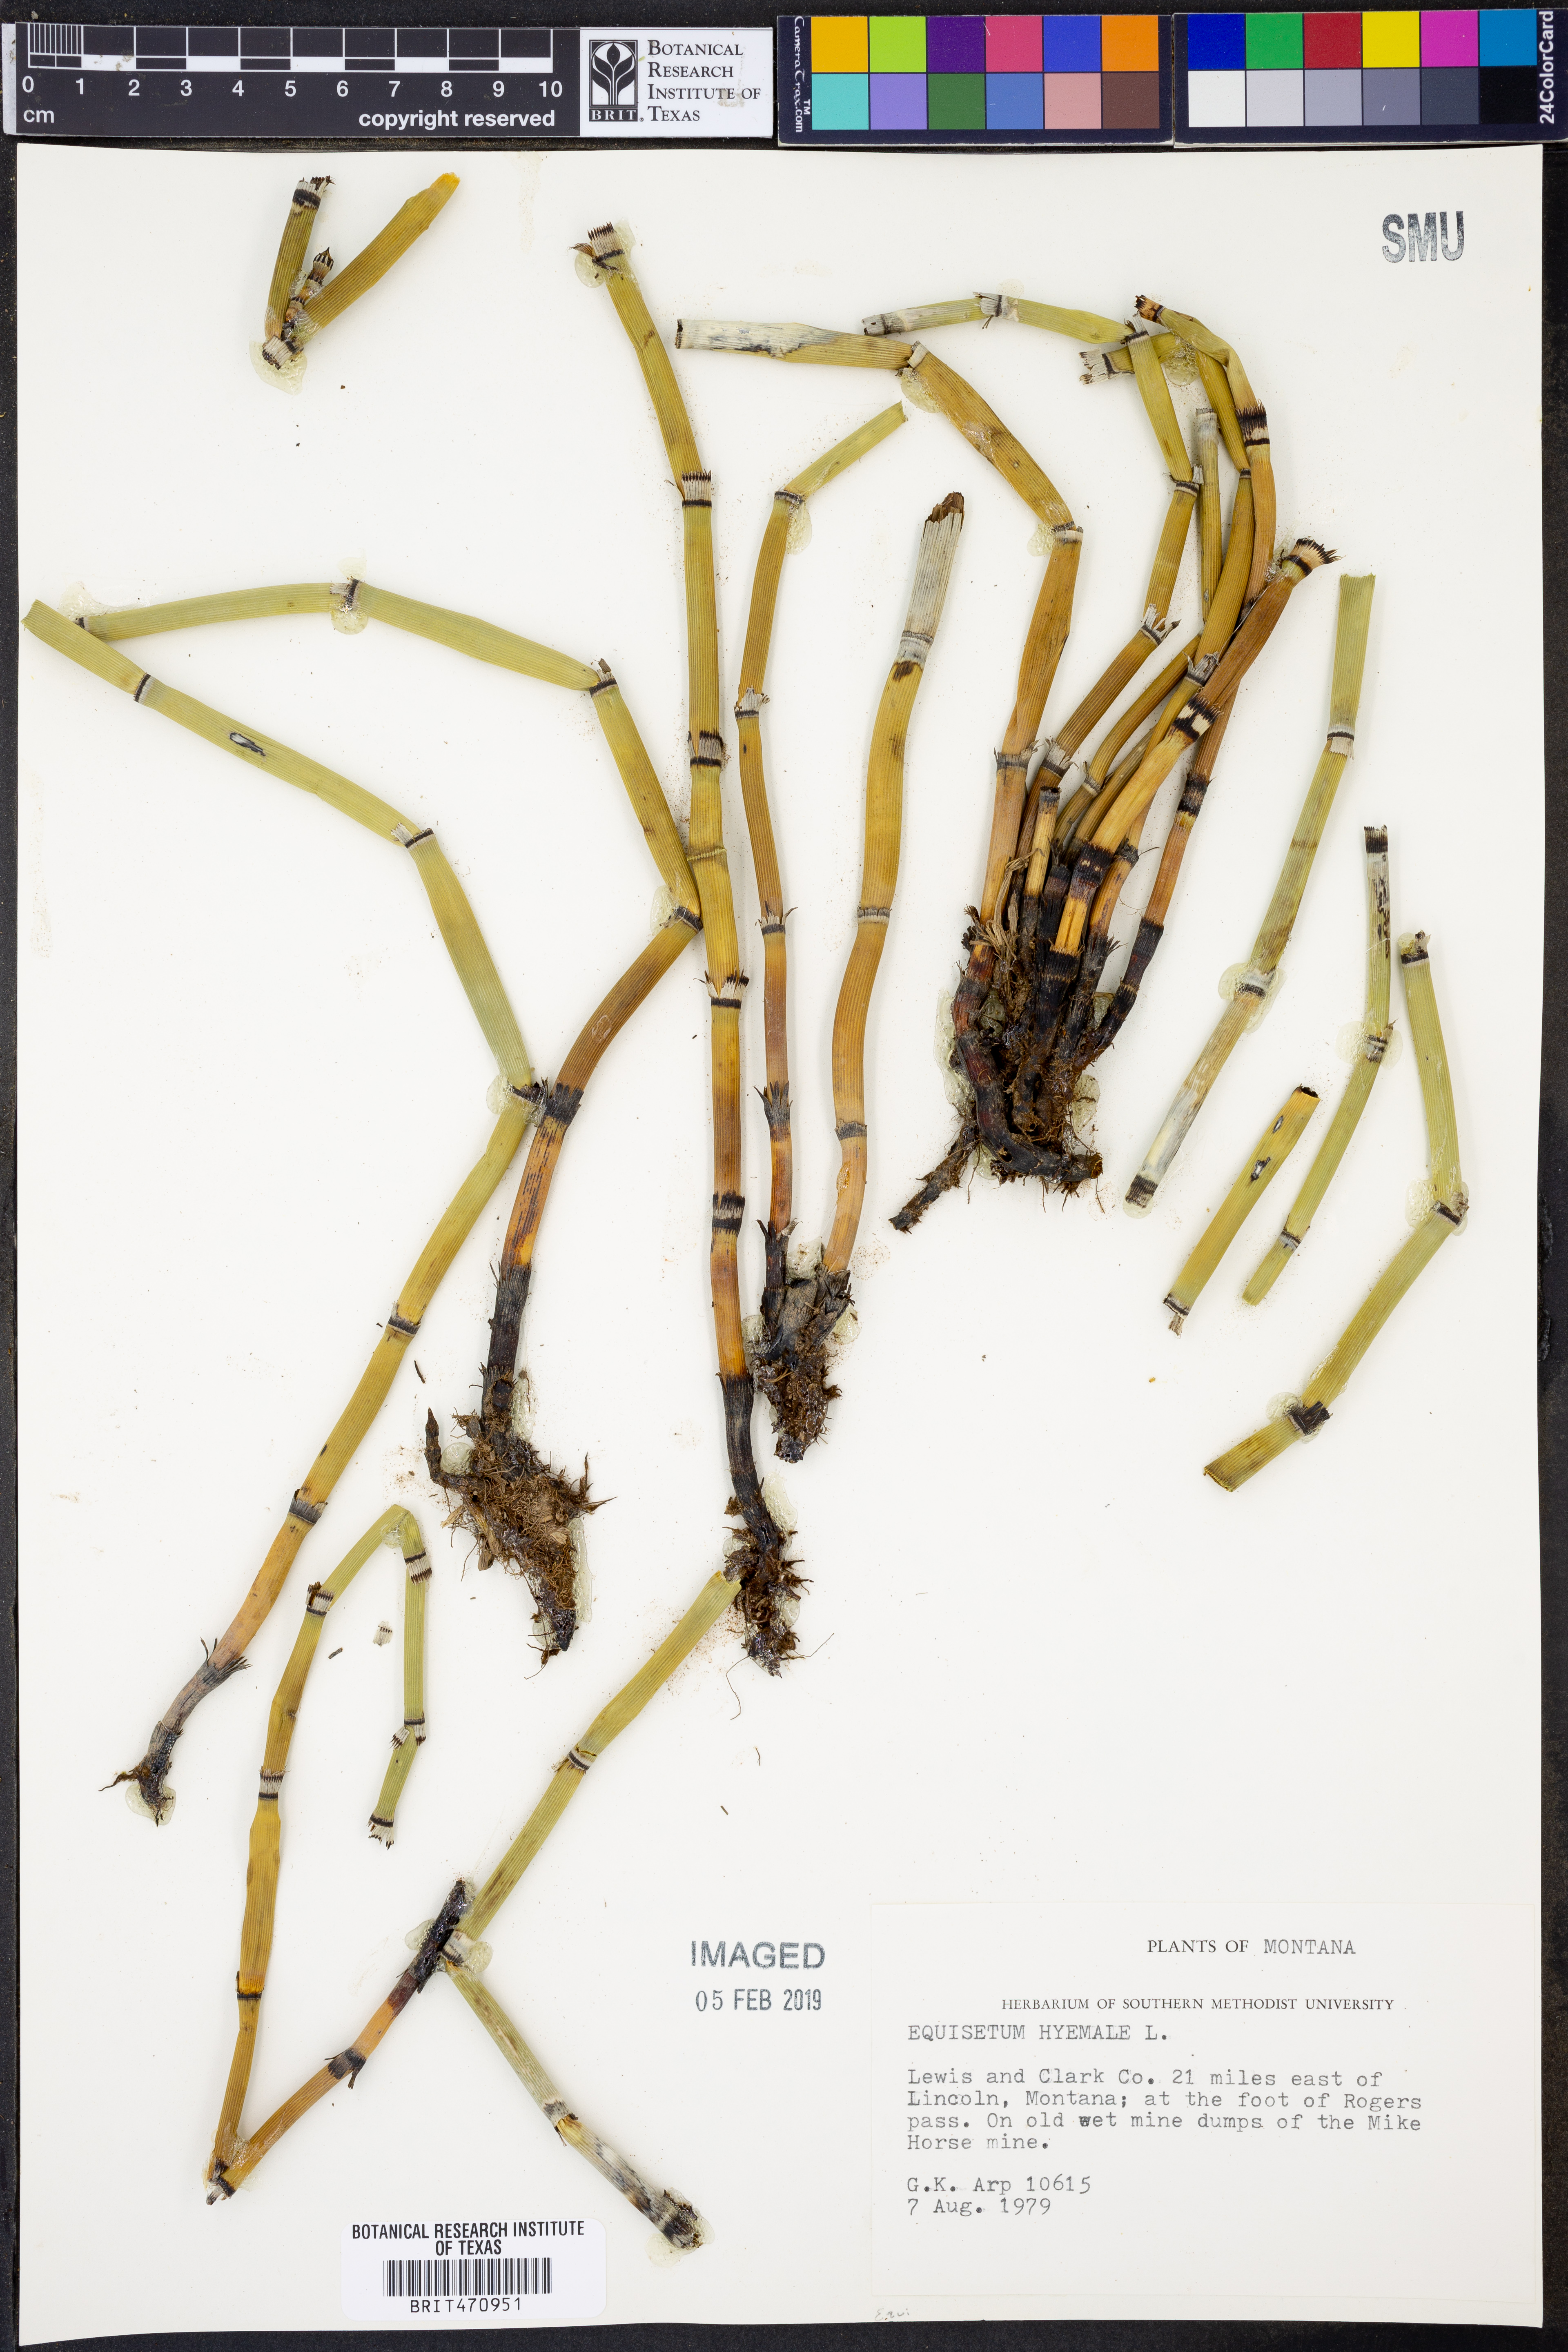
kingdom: Plantae
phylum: Tracheophyta
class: Polypodiopsida
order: Equisetales
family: Equisetaceae
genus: Equisetum
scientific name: Equisetum hyemale
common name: Rough horsetail
